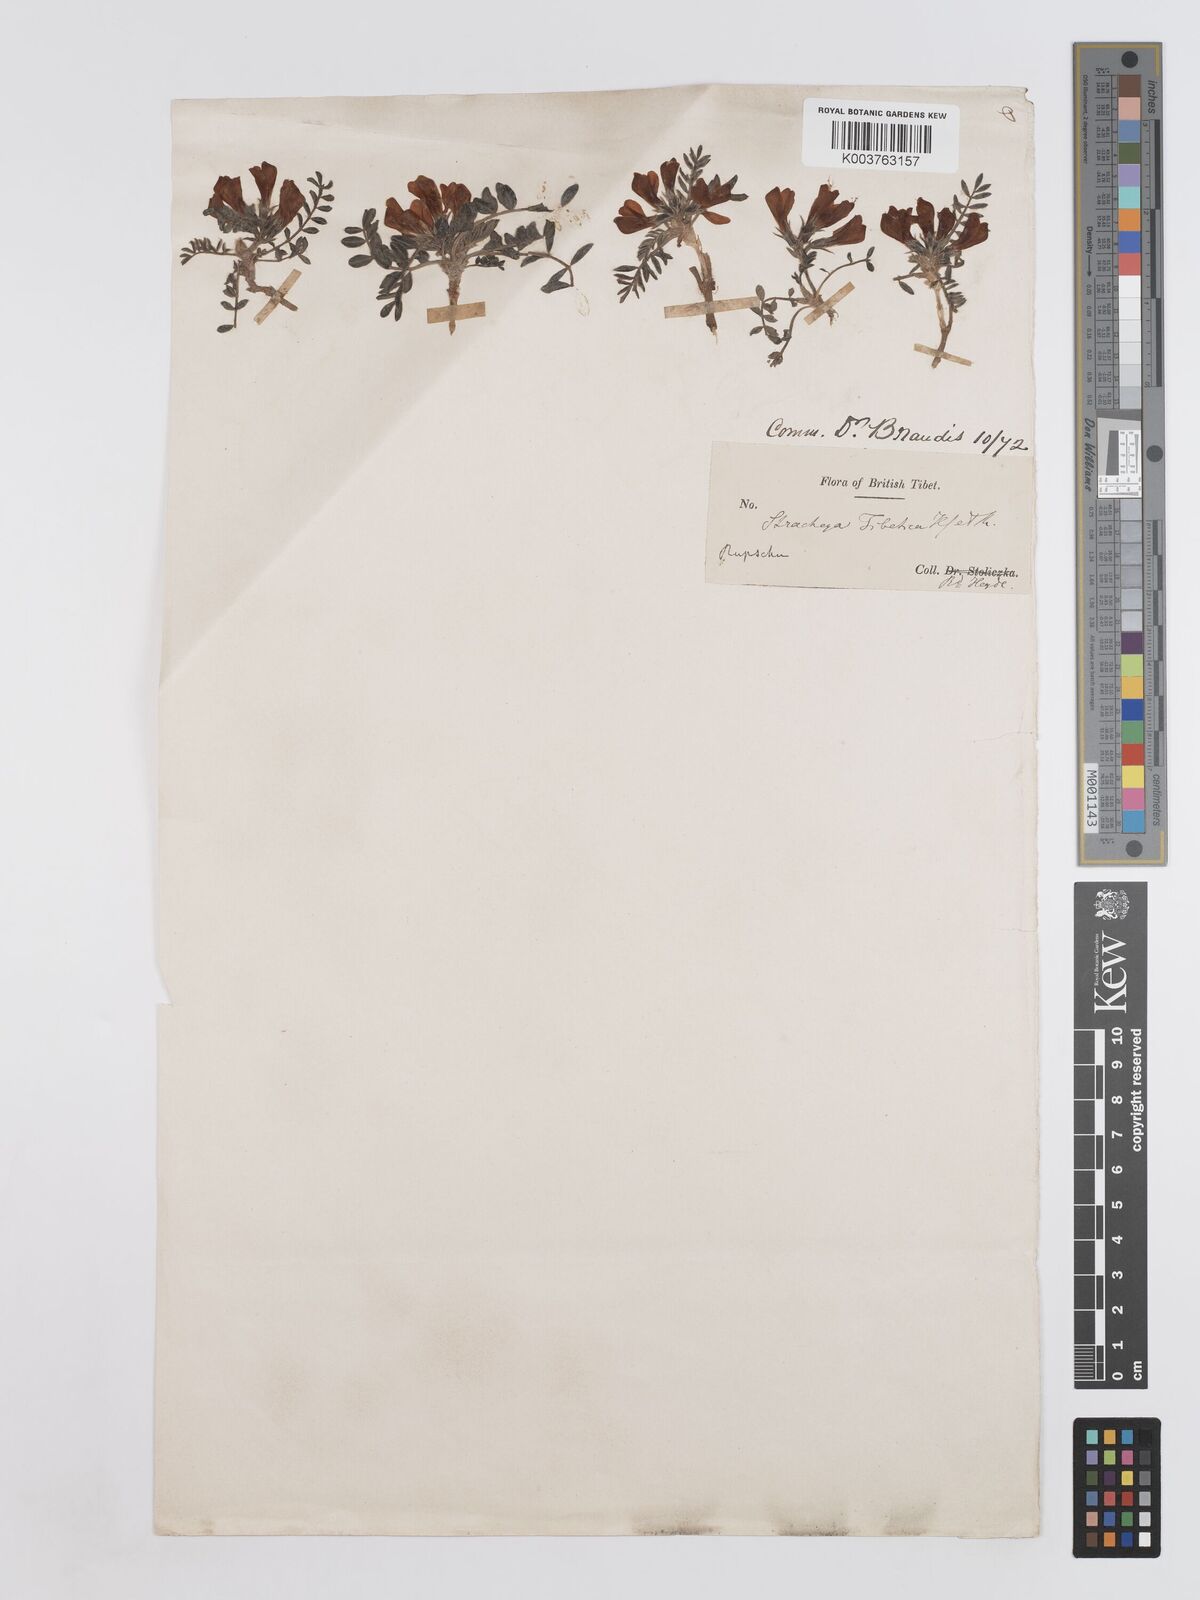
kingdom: Plantae
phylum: Tracheophyta
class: Magnoliopsida
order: Fabales
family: Fabaceae
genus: Hedysarum
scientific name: Hedysarum tibeticum
